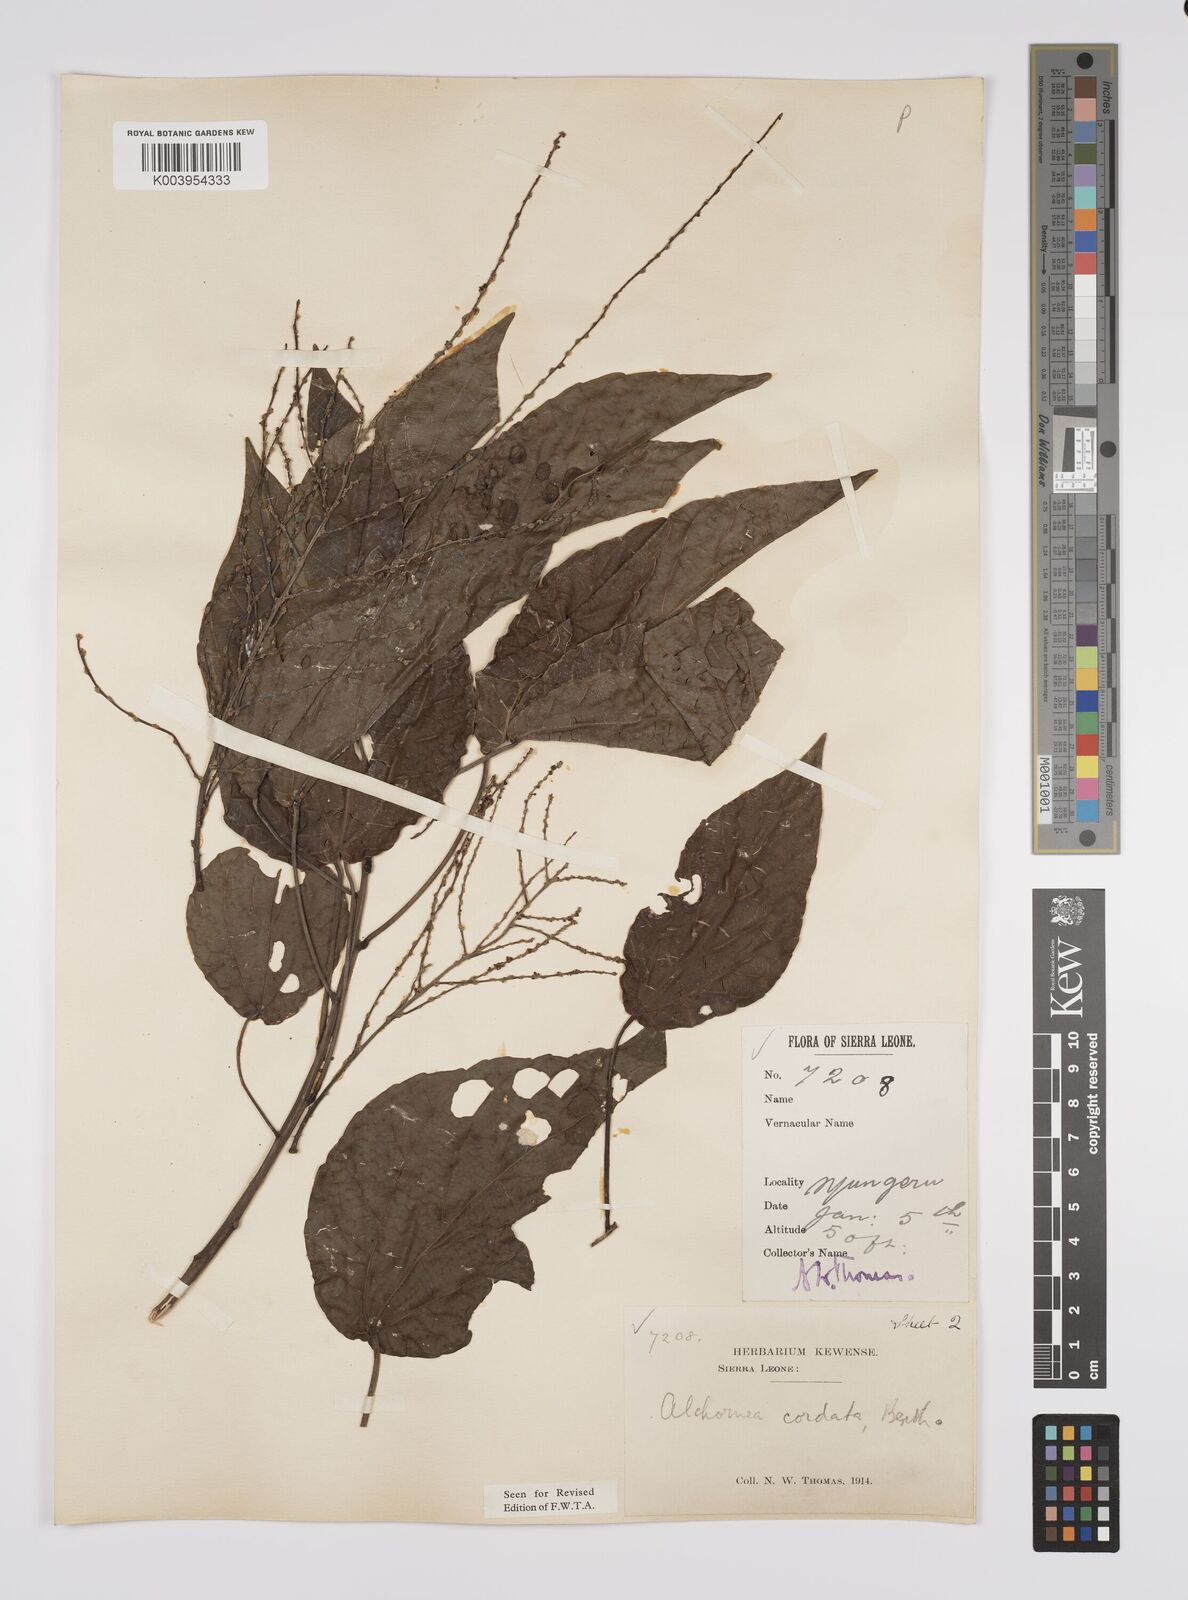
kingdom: Plantae
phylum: Tracheophyta
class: Magnoliopsida
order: Malpighiales
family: Euphorbiaceae
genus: Alchornea
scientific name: Alchornea cordifolia
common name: Christmasbush
